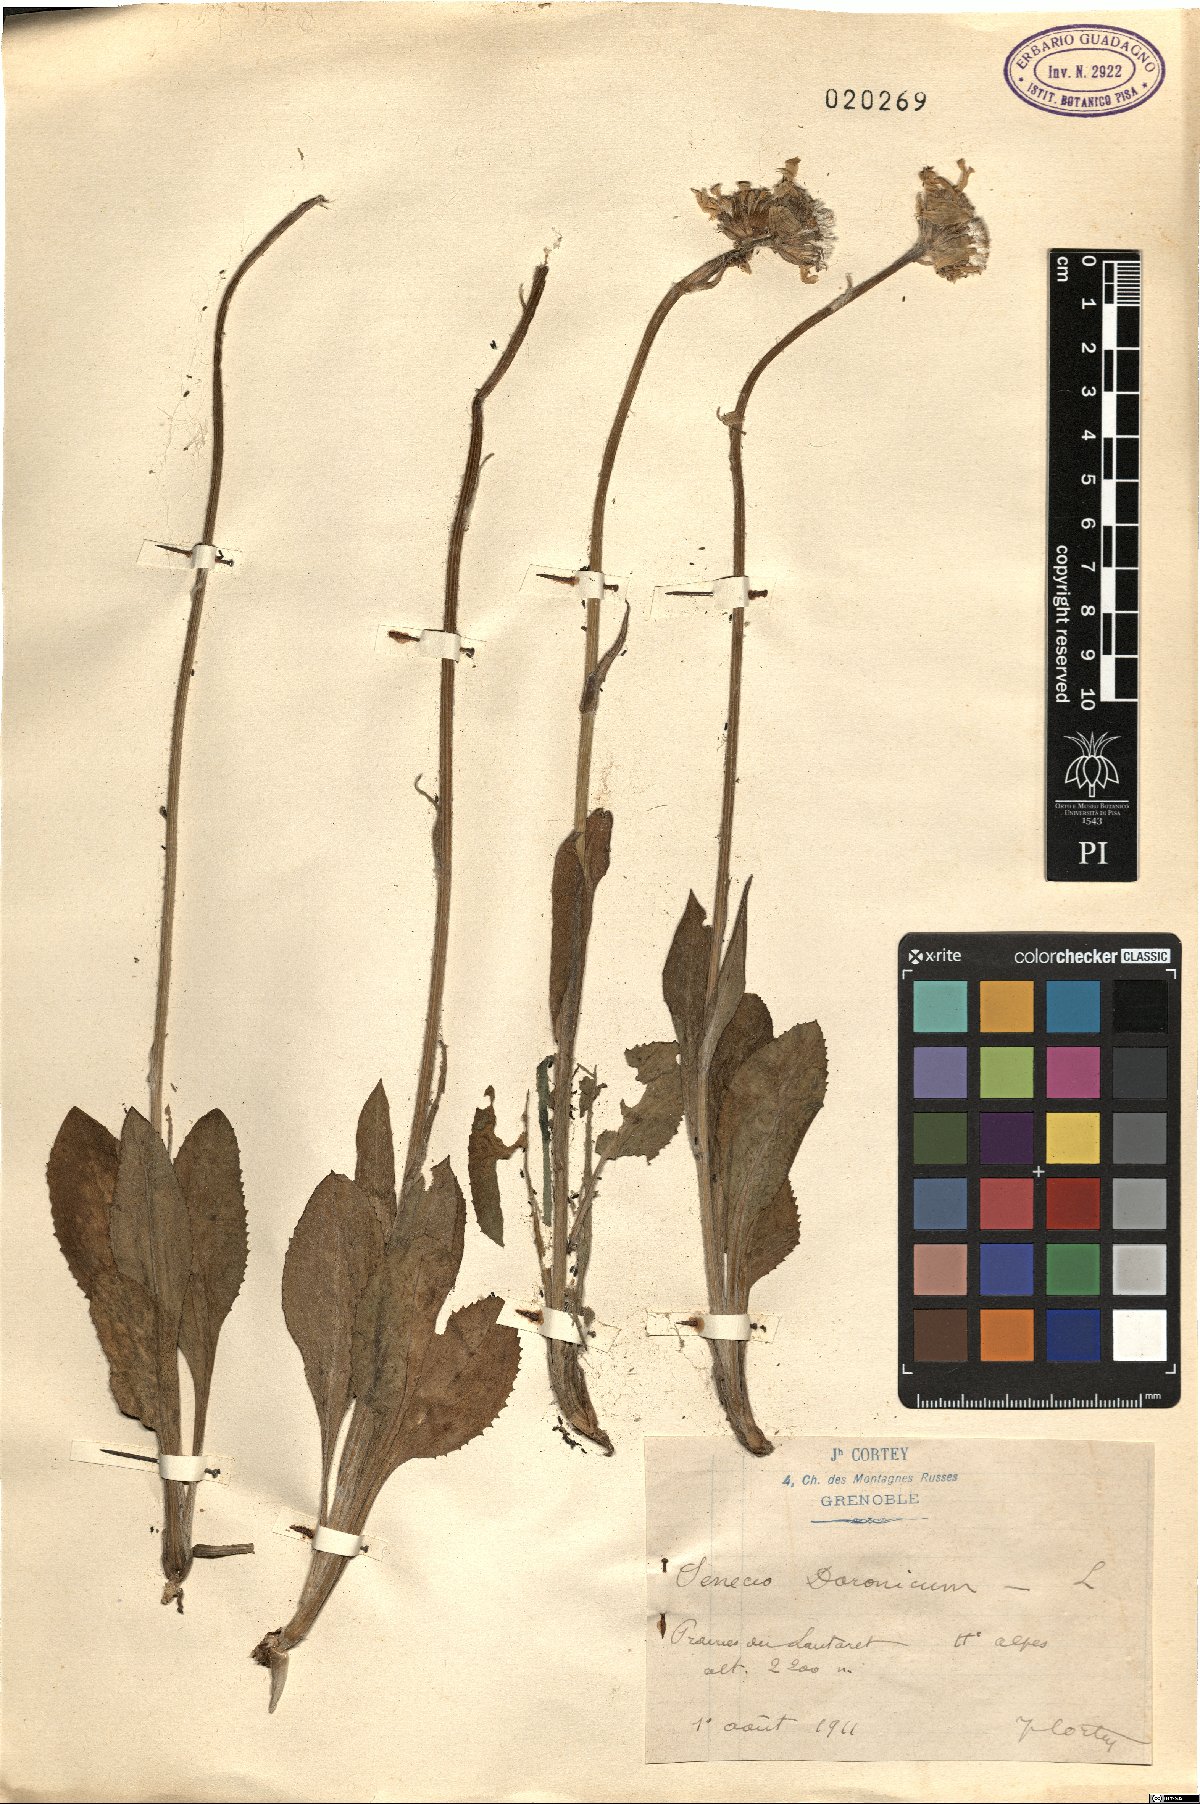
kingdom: Plantae
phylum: Tracheophyta
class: Magnoliopsida
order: Asterales
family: Asteraceae
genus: Senecio
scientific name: Senecio doronicum
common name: Chamois ragwort
